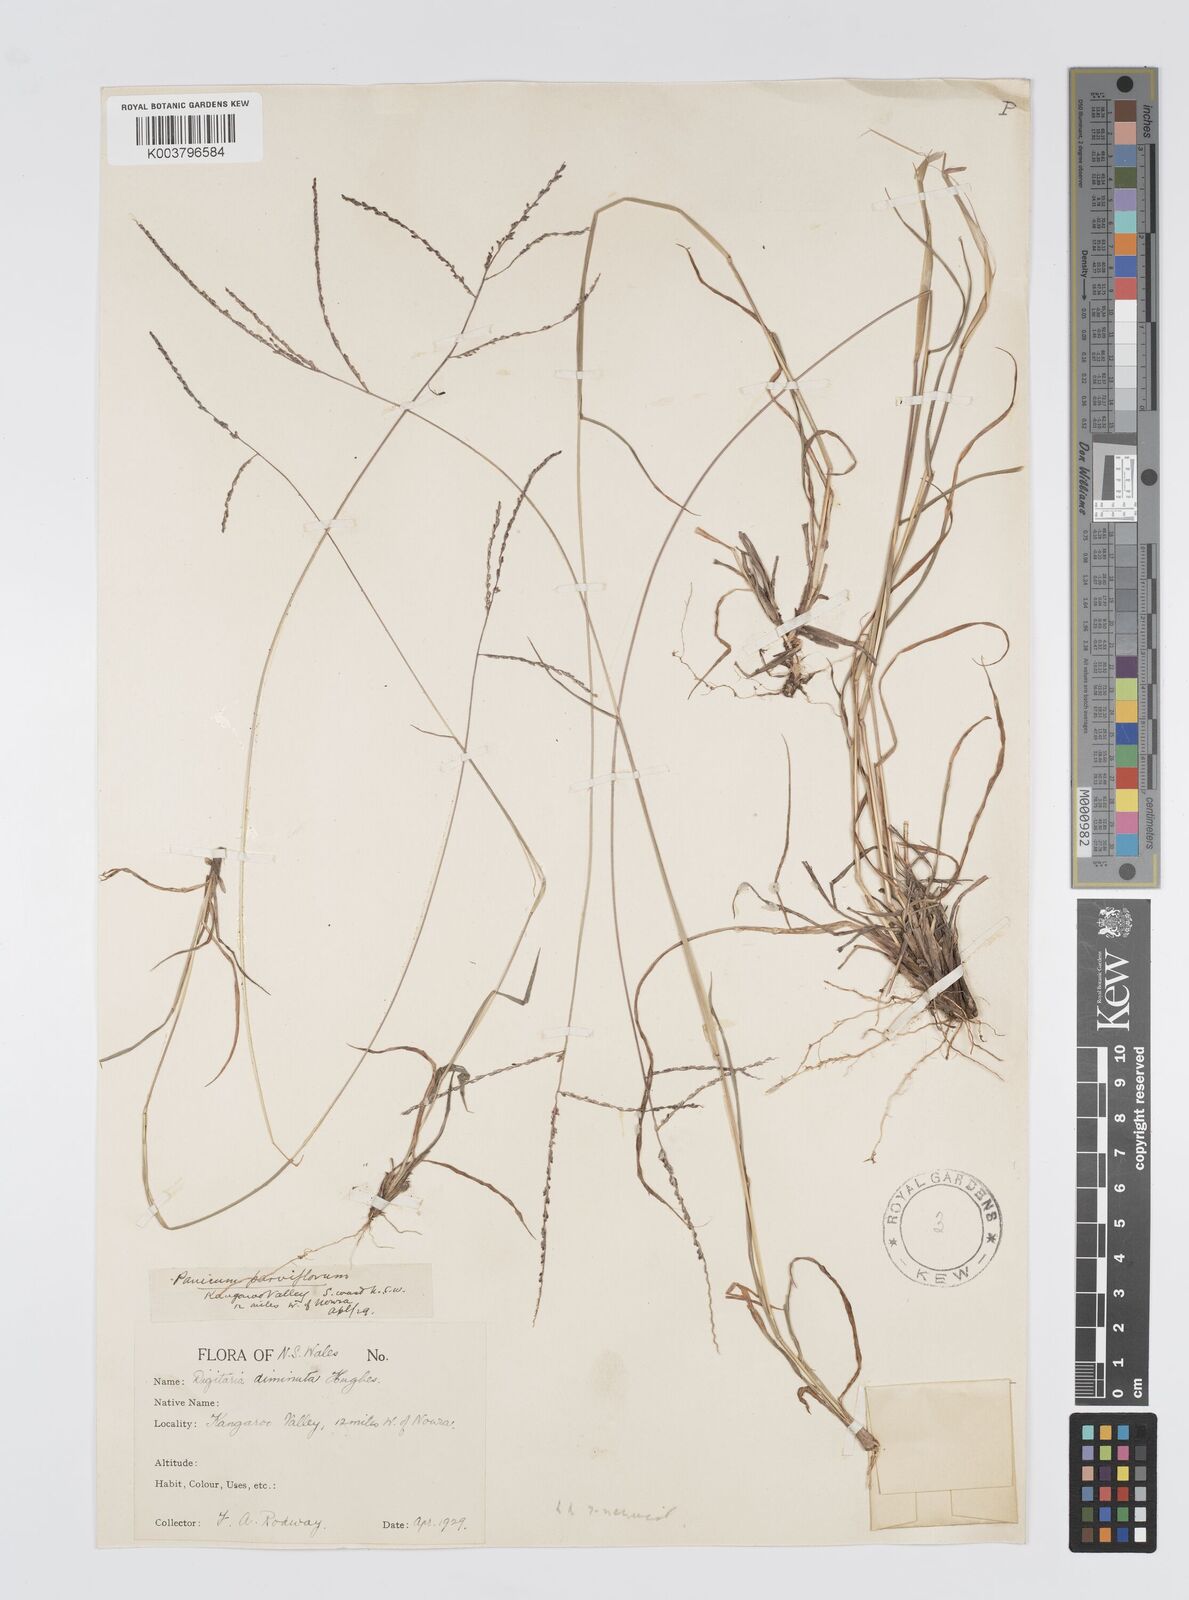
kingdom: Plantae
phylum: Tracheophyta
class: Liliopsida
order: Poales
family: Poaceae
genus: Digitaria
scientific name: Digitaria breviglumis
